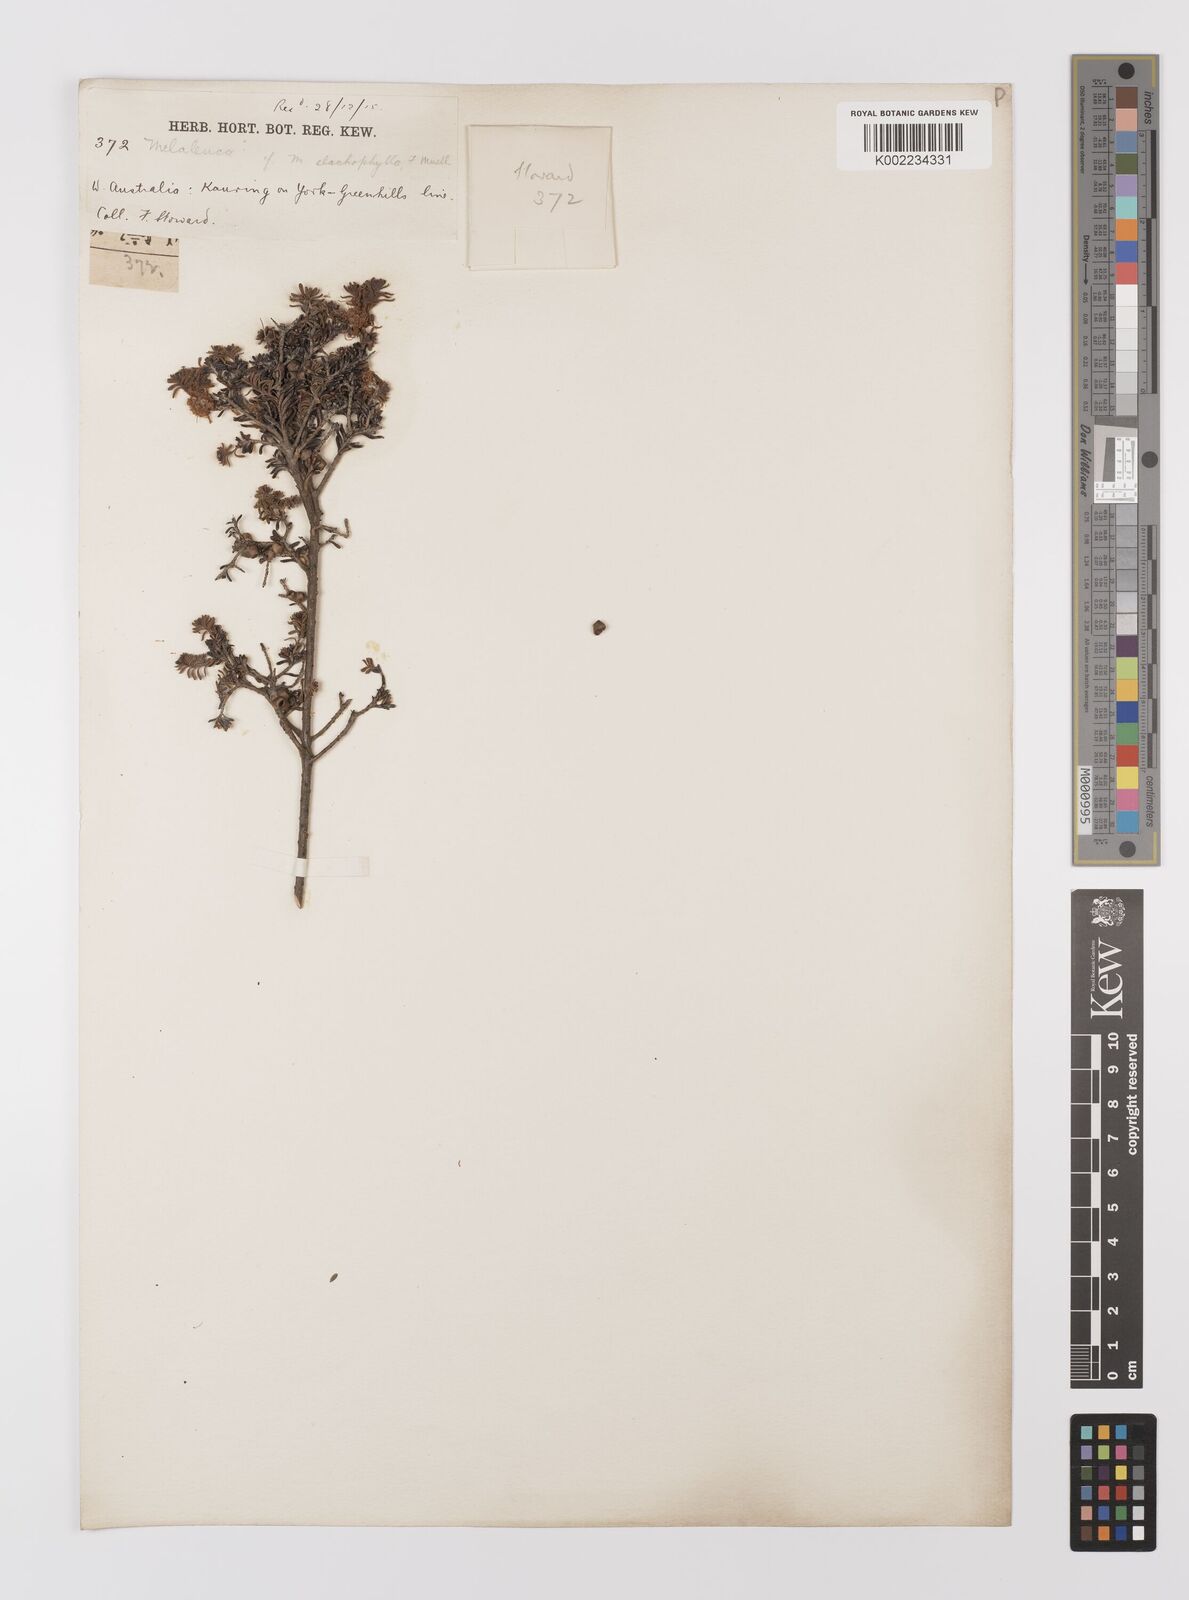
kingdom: Plantae
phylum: Tracheophyta
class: Magnoliopsida
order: Myrtales
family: Myrtaceae
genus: Melaleuca
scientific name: Melaleuca depauperata
